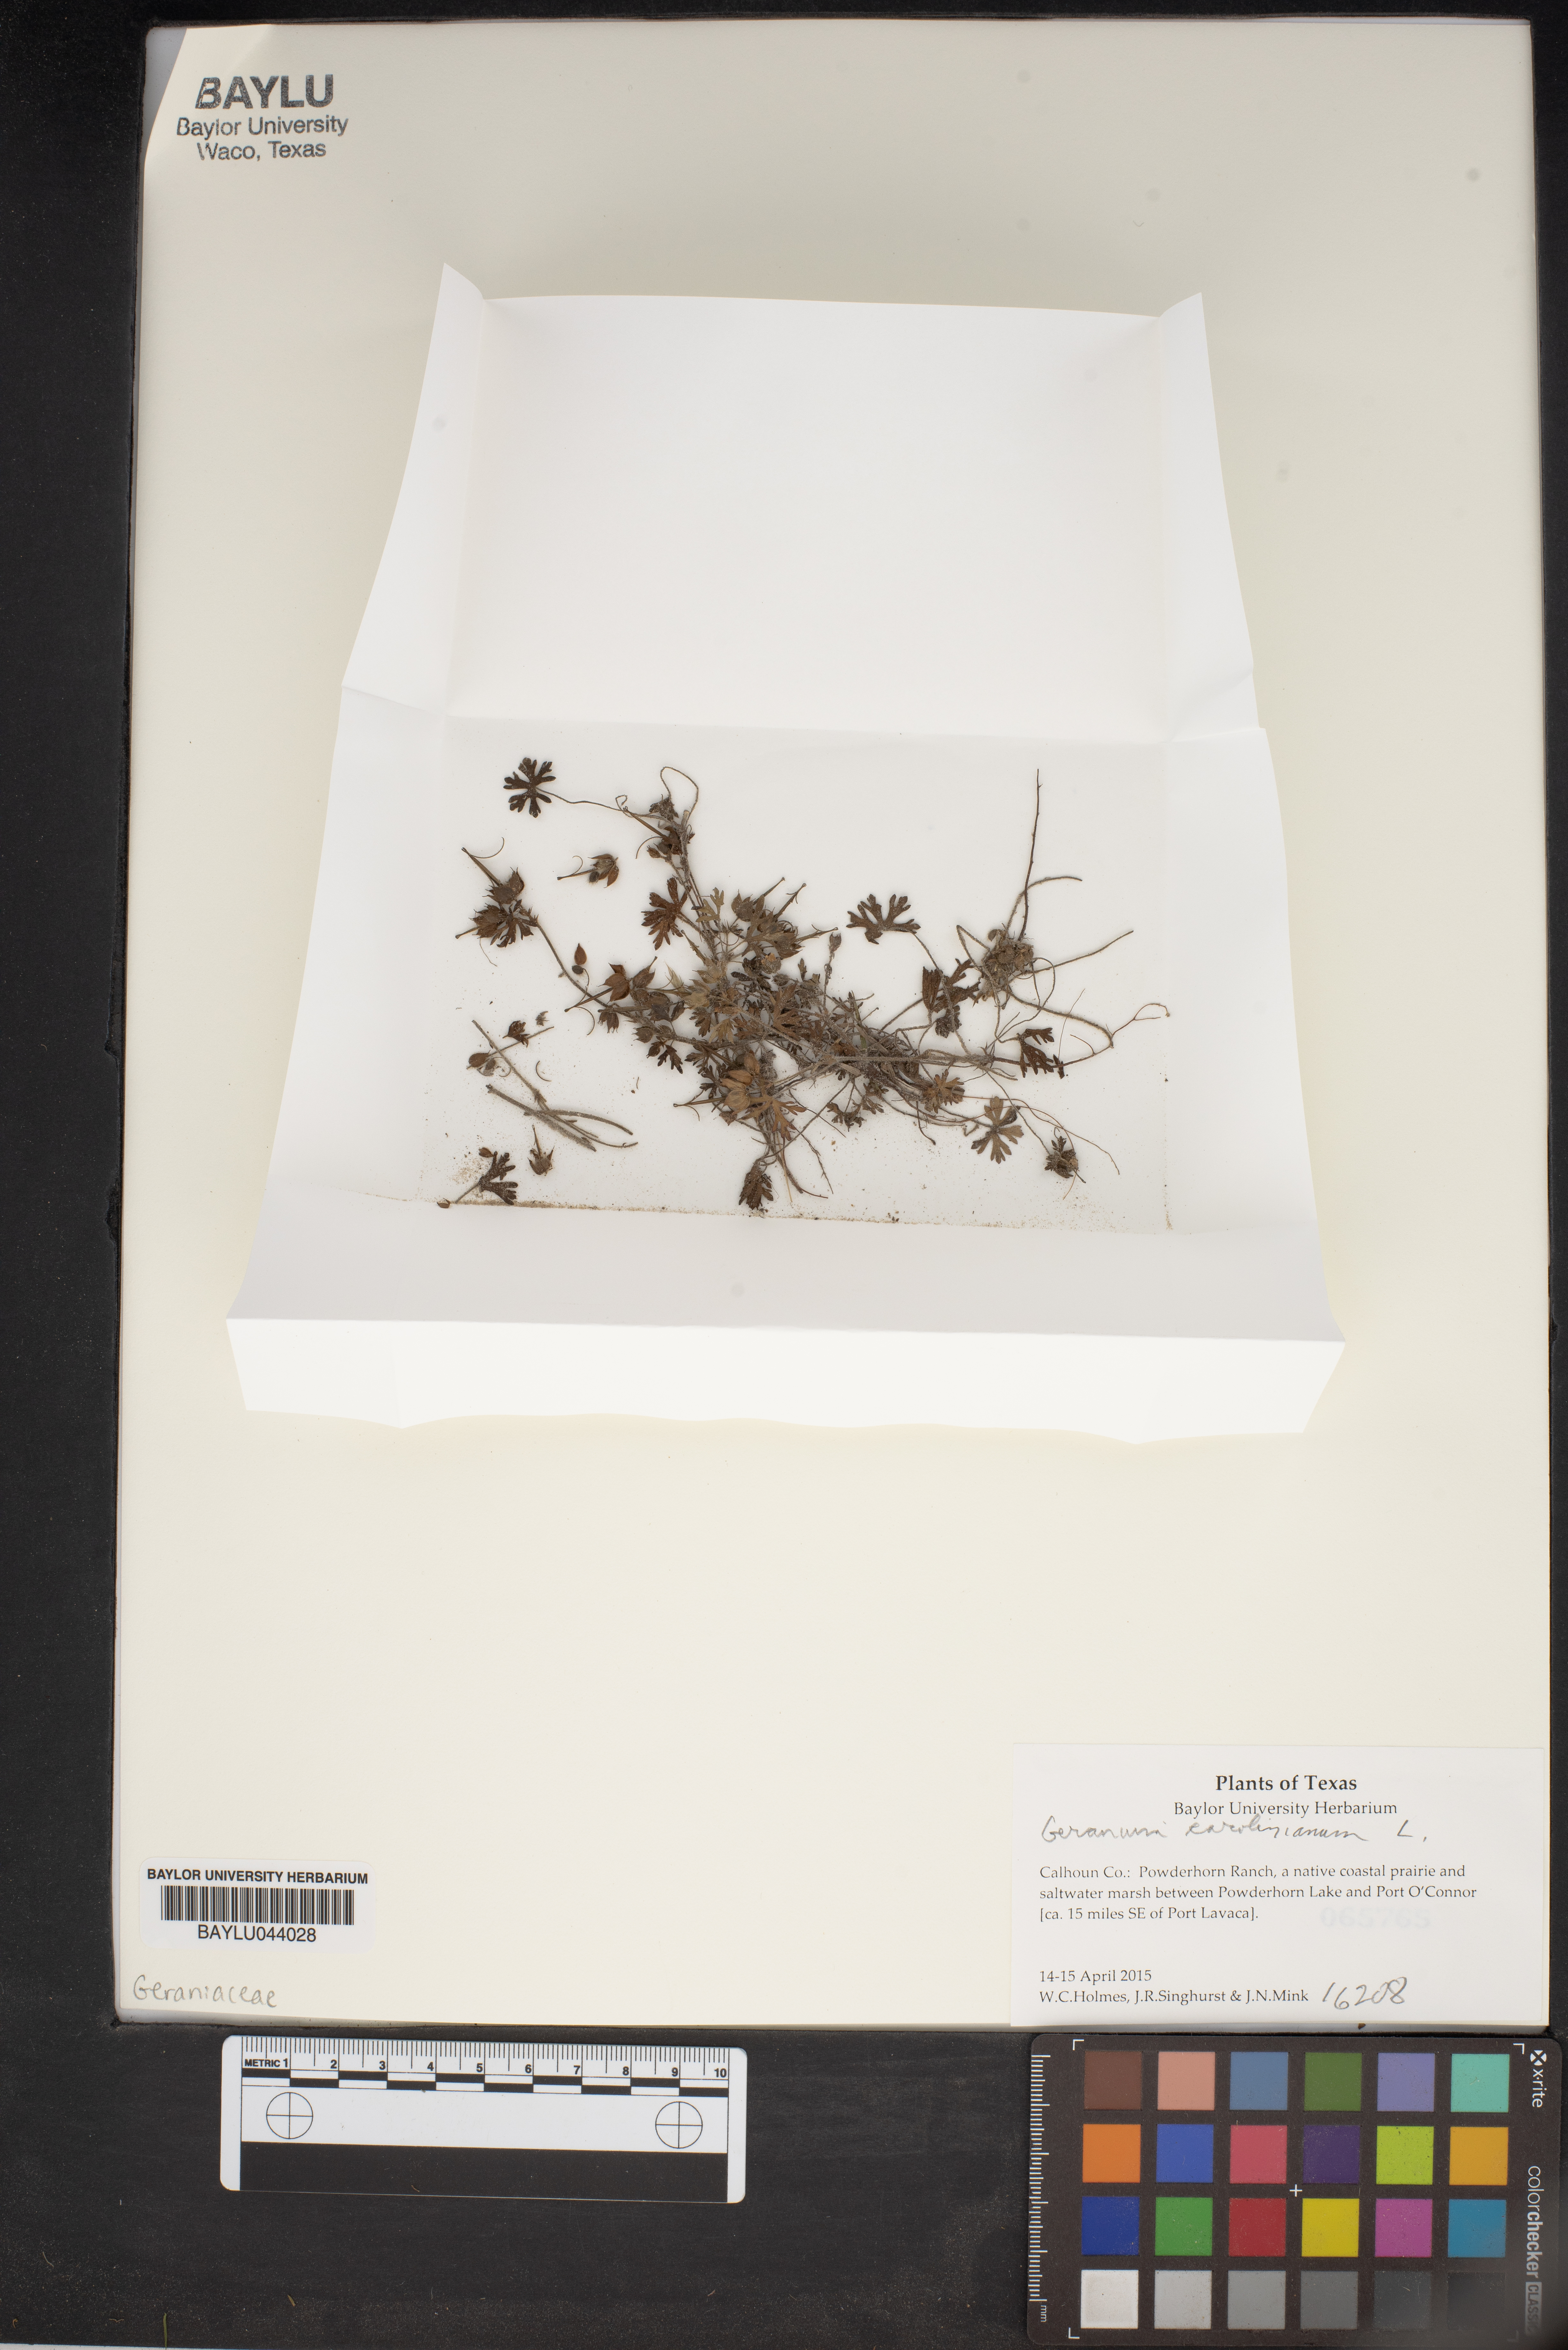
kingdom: Plantae
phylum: Tracheophyta
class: Magnoliopsida
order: Geraniales
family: Geraniaceae
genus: Geranium
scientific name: Geranium carolinianum
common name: Carolina crane's-bill
